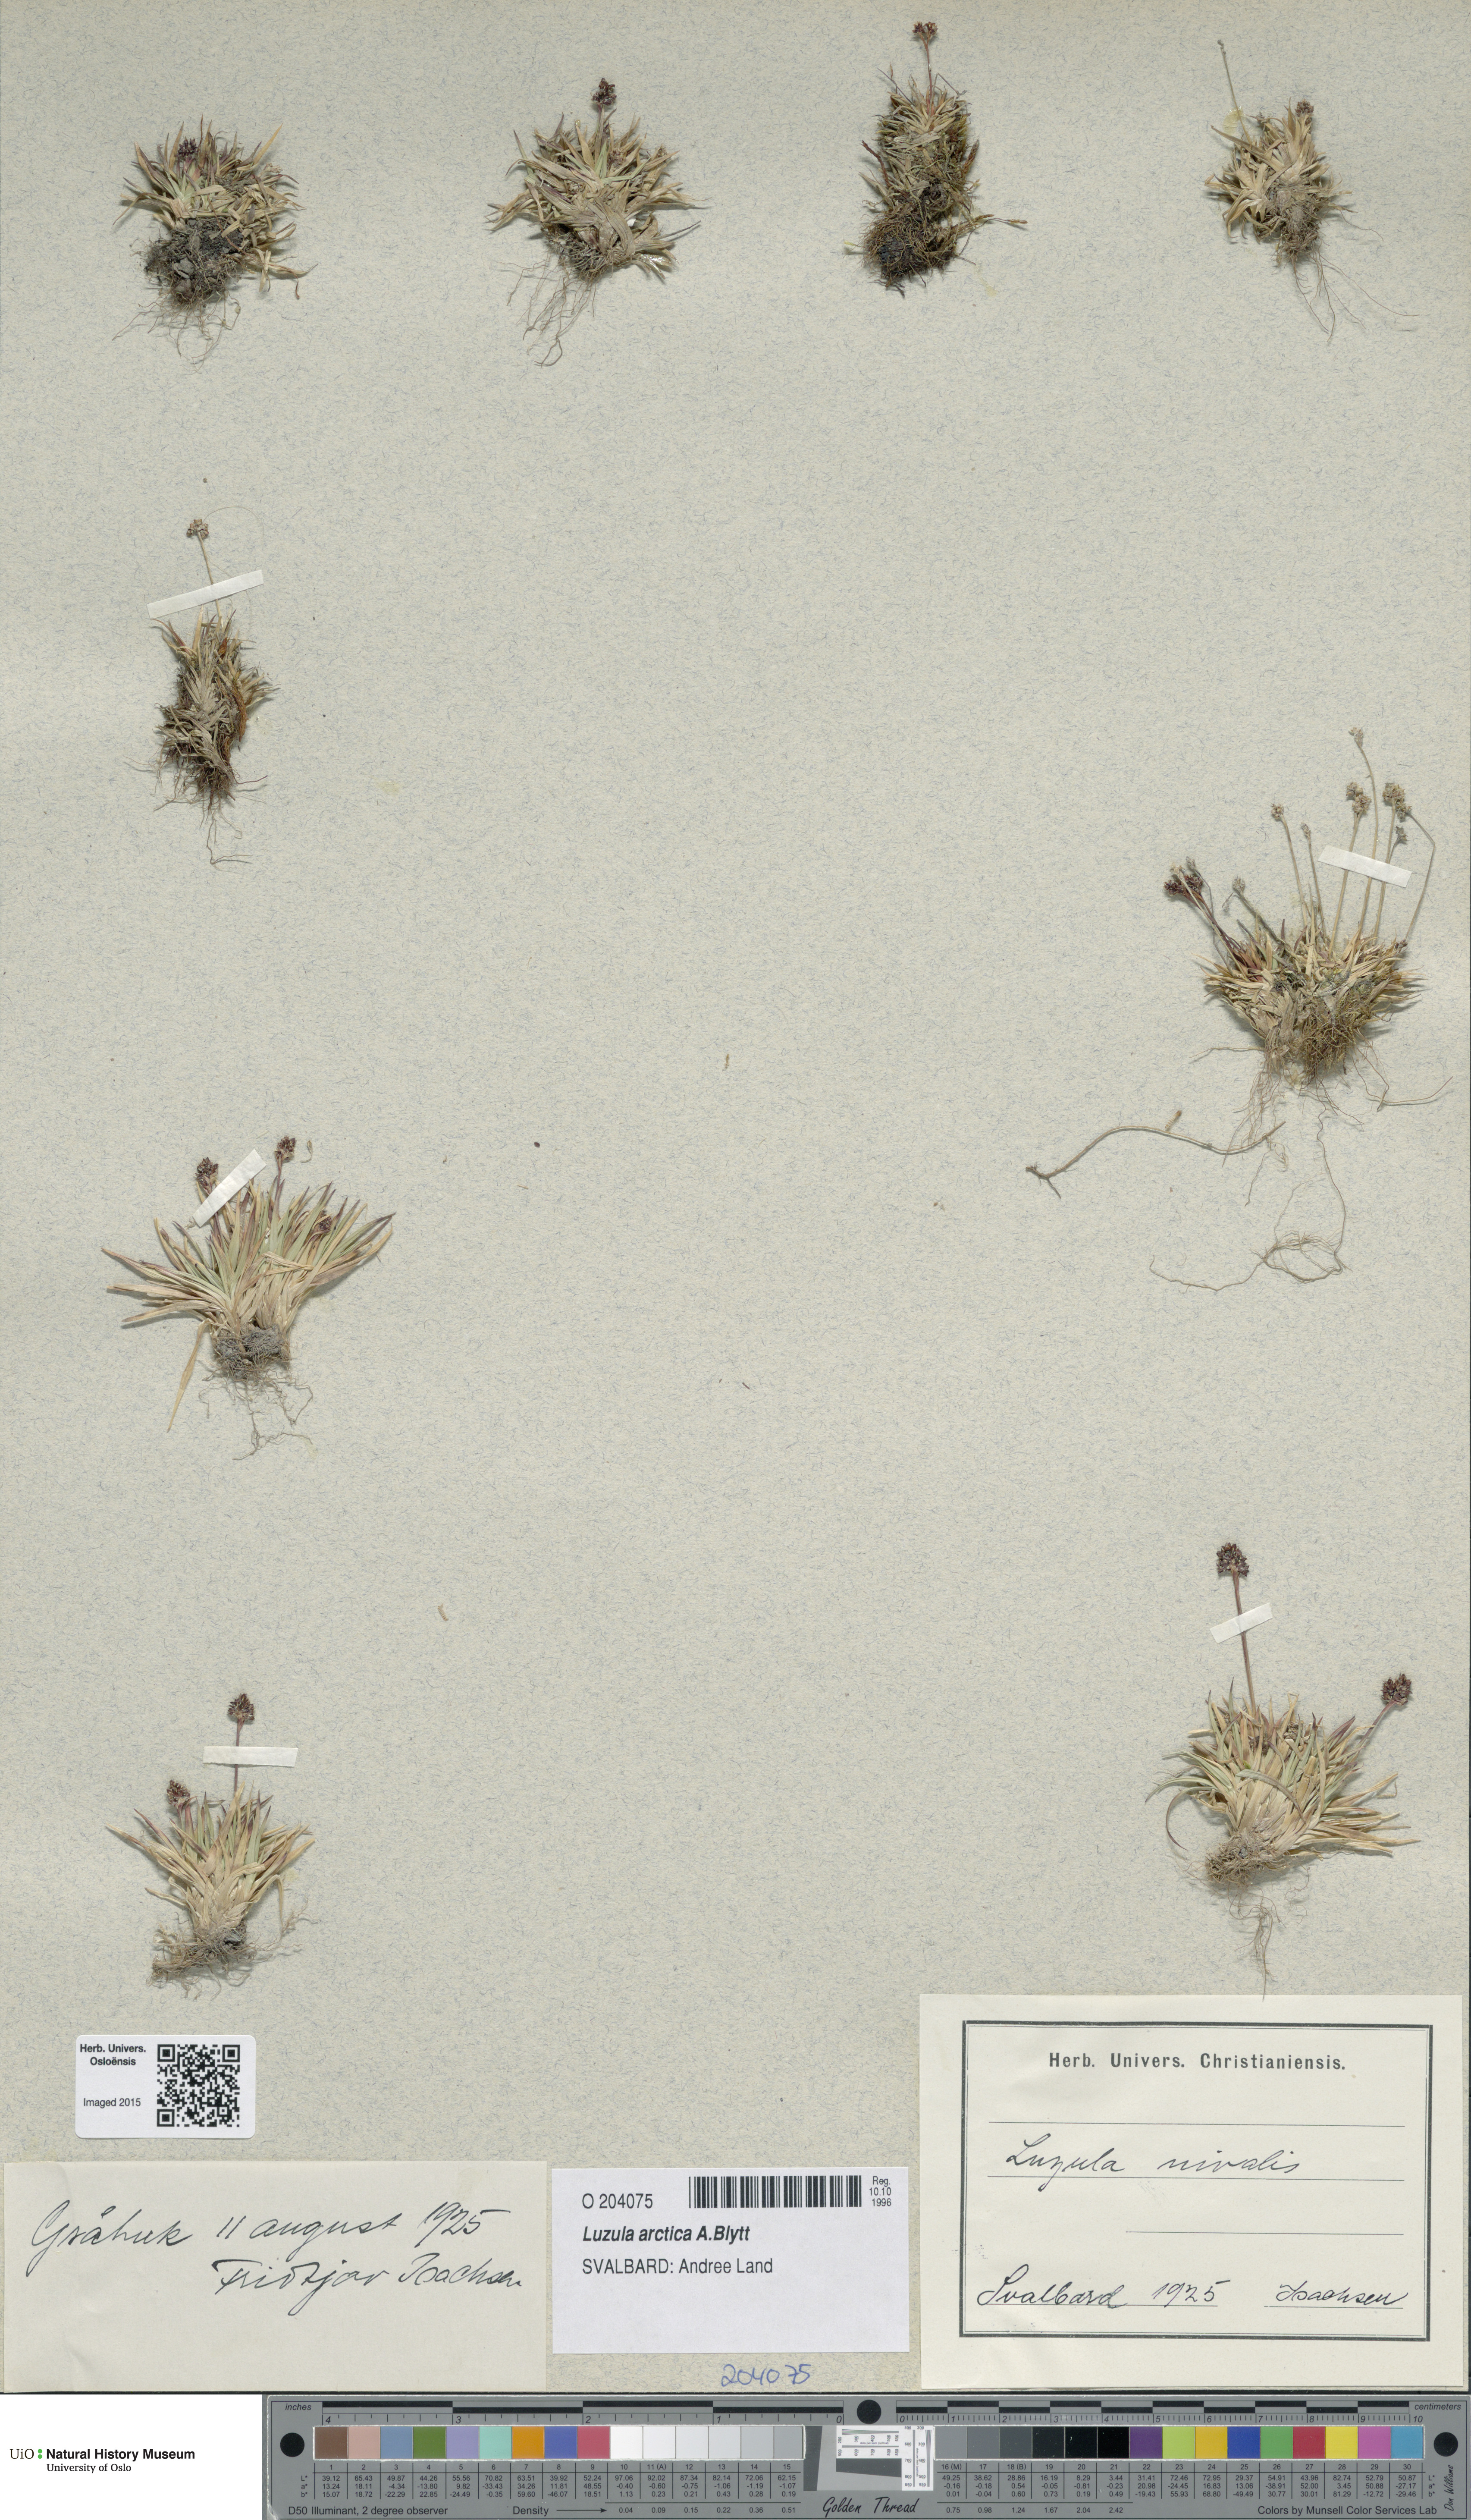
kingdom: Plantae
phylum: Tracheophyta
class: Liliopsida
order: Poales
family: Juncaceae
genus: Luzula
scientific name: Luzula nivalis
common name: Arctic woodrush
